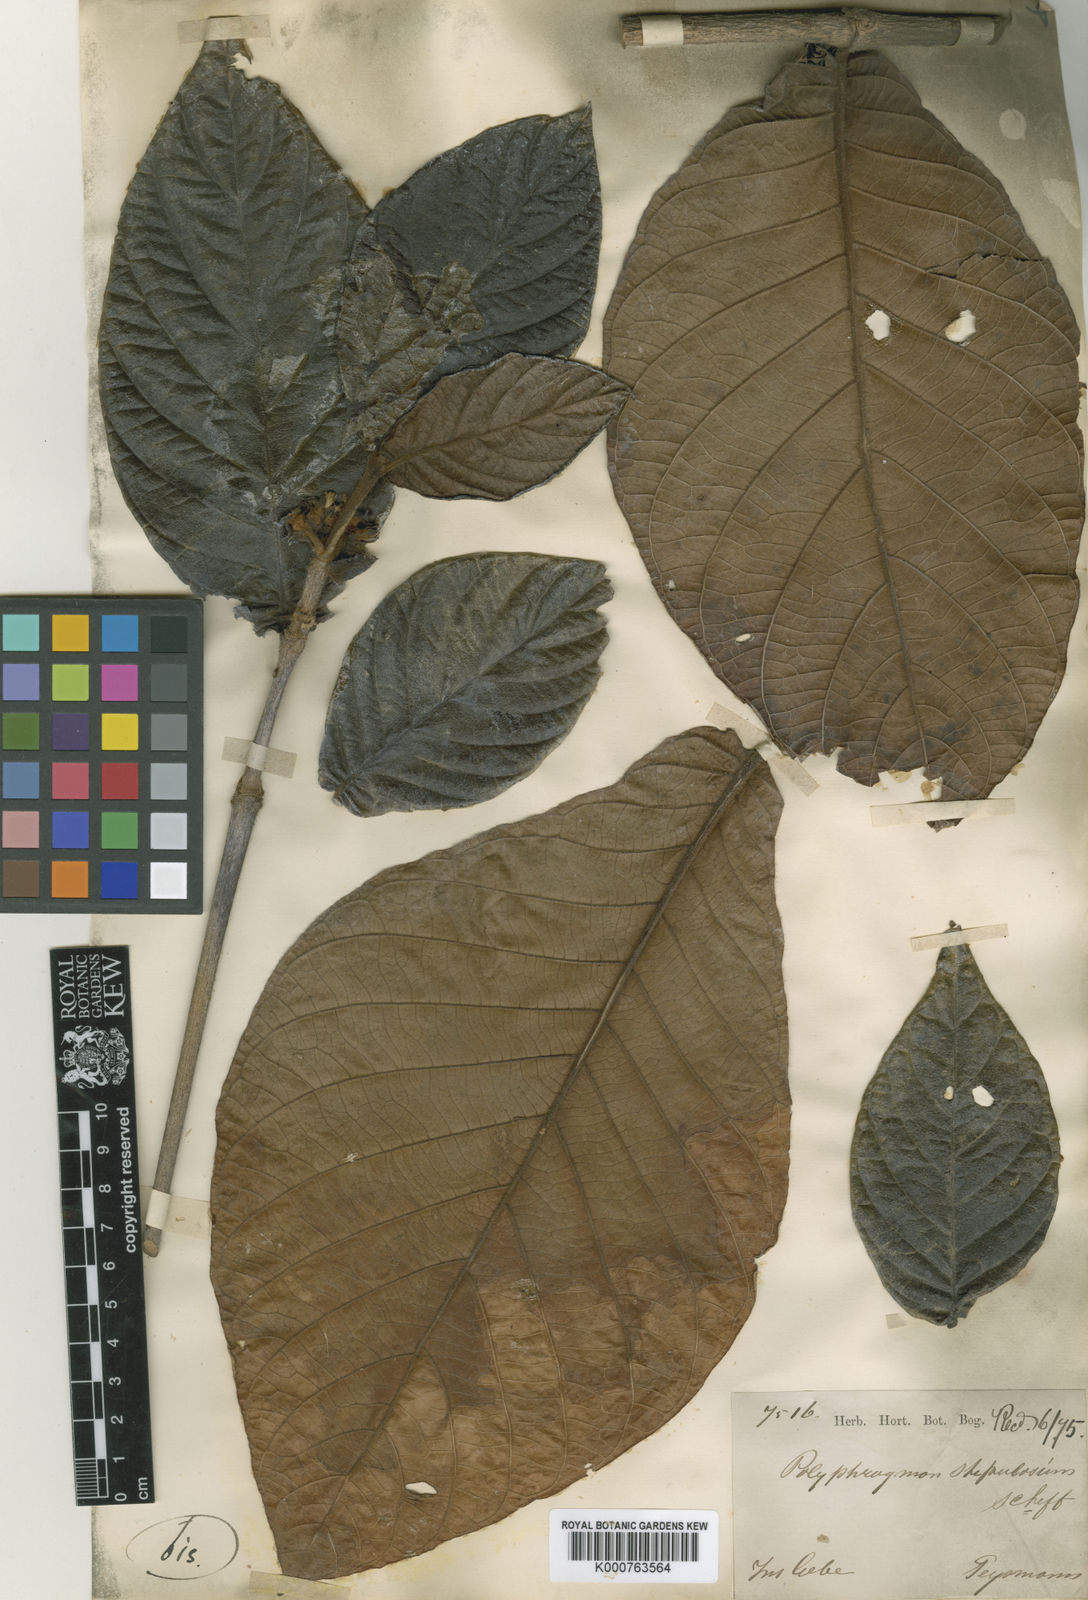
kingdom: Plantae
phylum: Tracheophyta
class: Magnoliopsida
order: Gentianales
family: Rubiaceae
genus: Timonius
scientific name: Timonius minahassae
